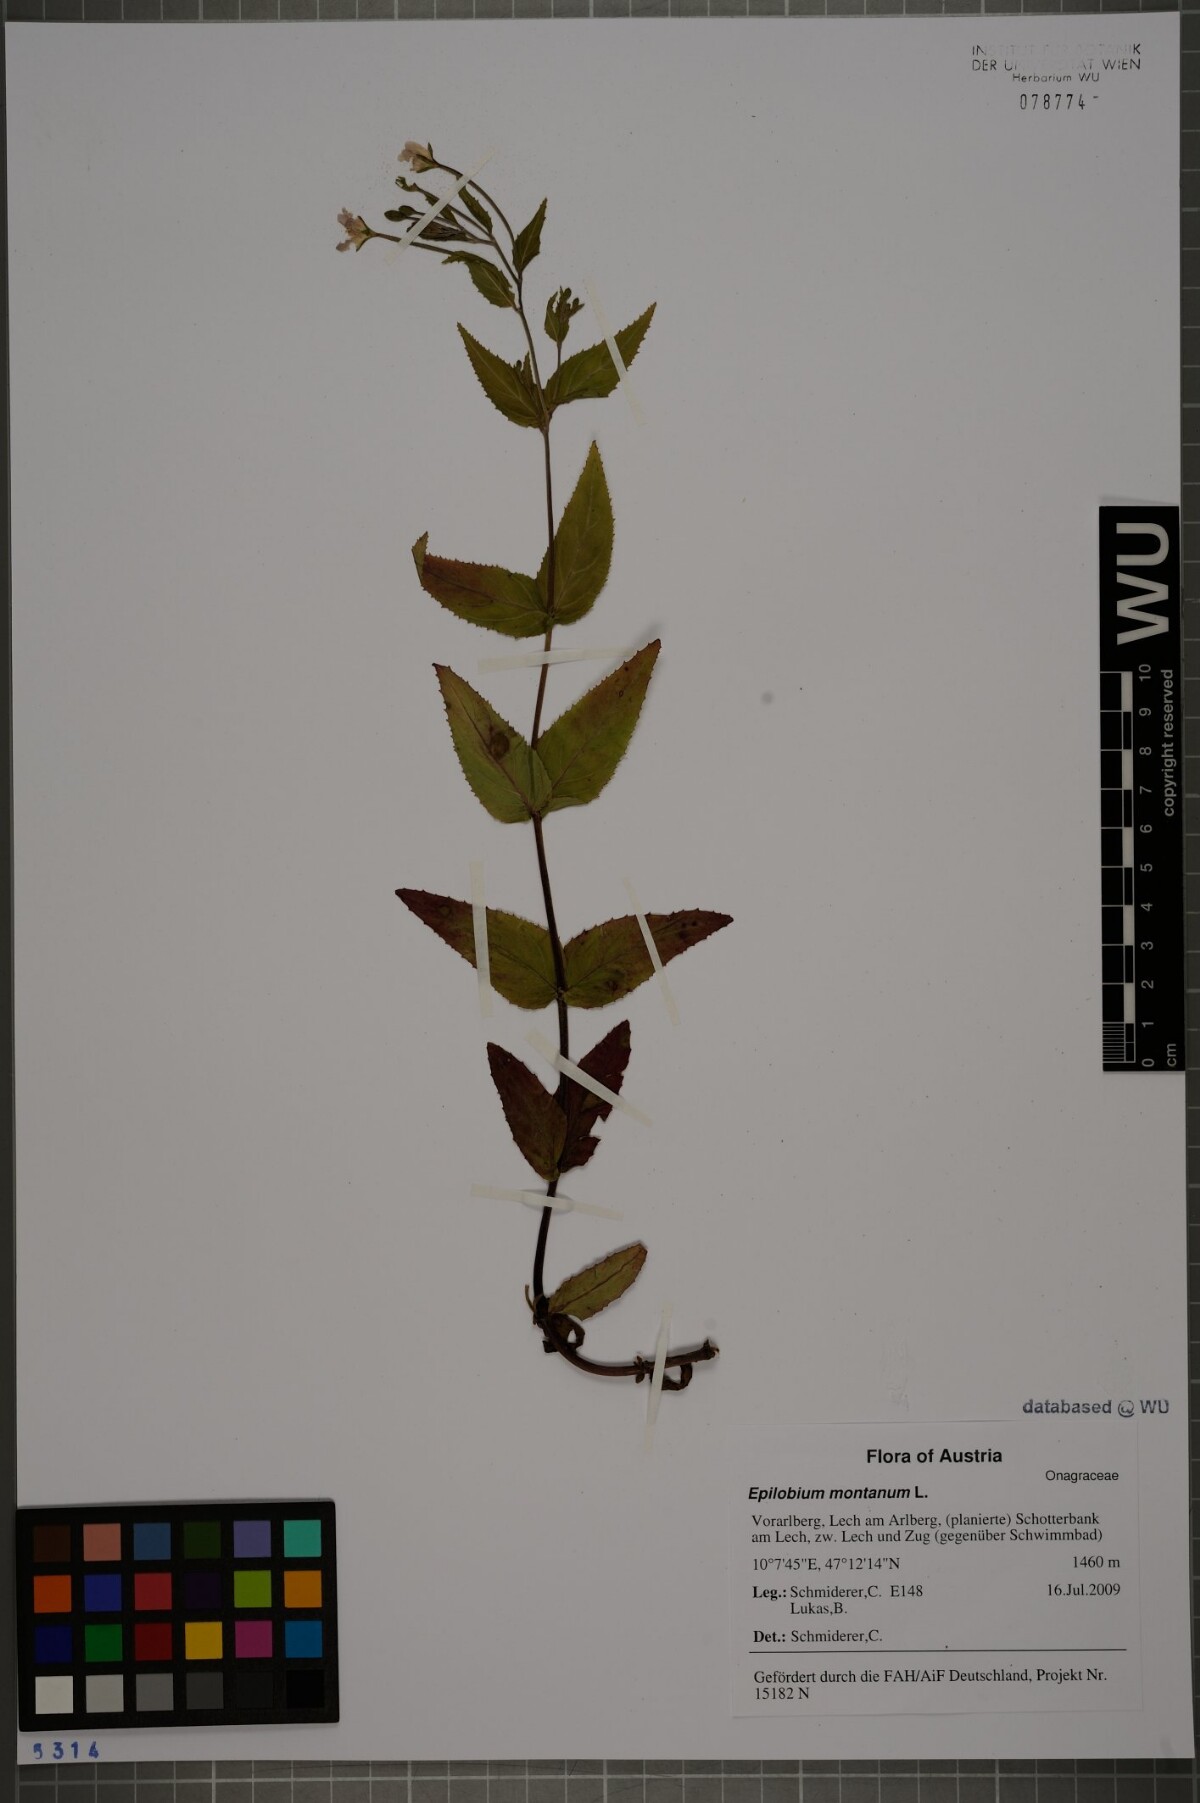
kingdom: Plantae
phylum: Tracheophyta
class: Magnoliopsida
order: Myrtales
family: Onagraceae
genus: Epilobium
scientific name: Epilobium montanum
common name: Broad-leaved willowherb
